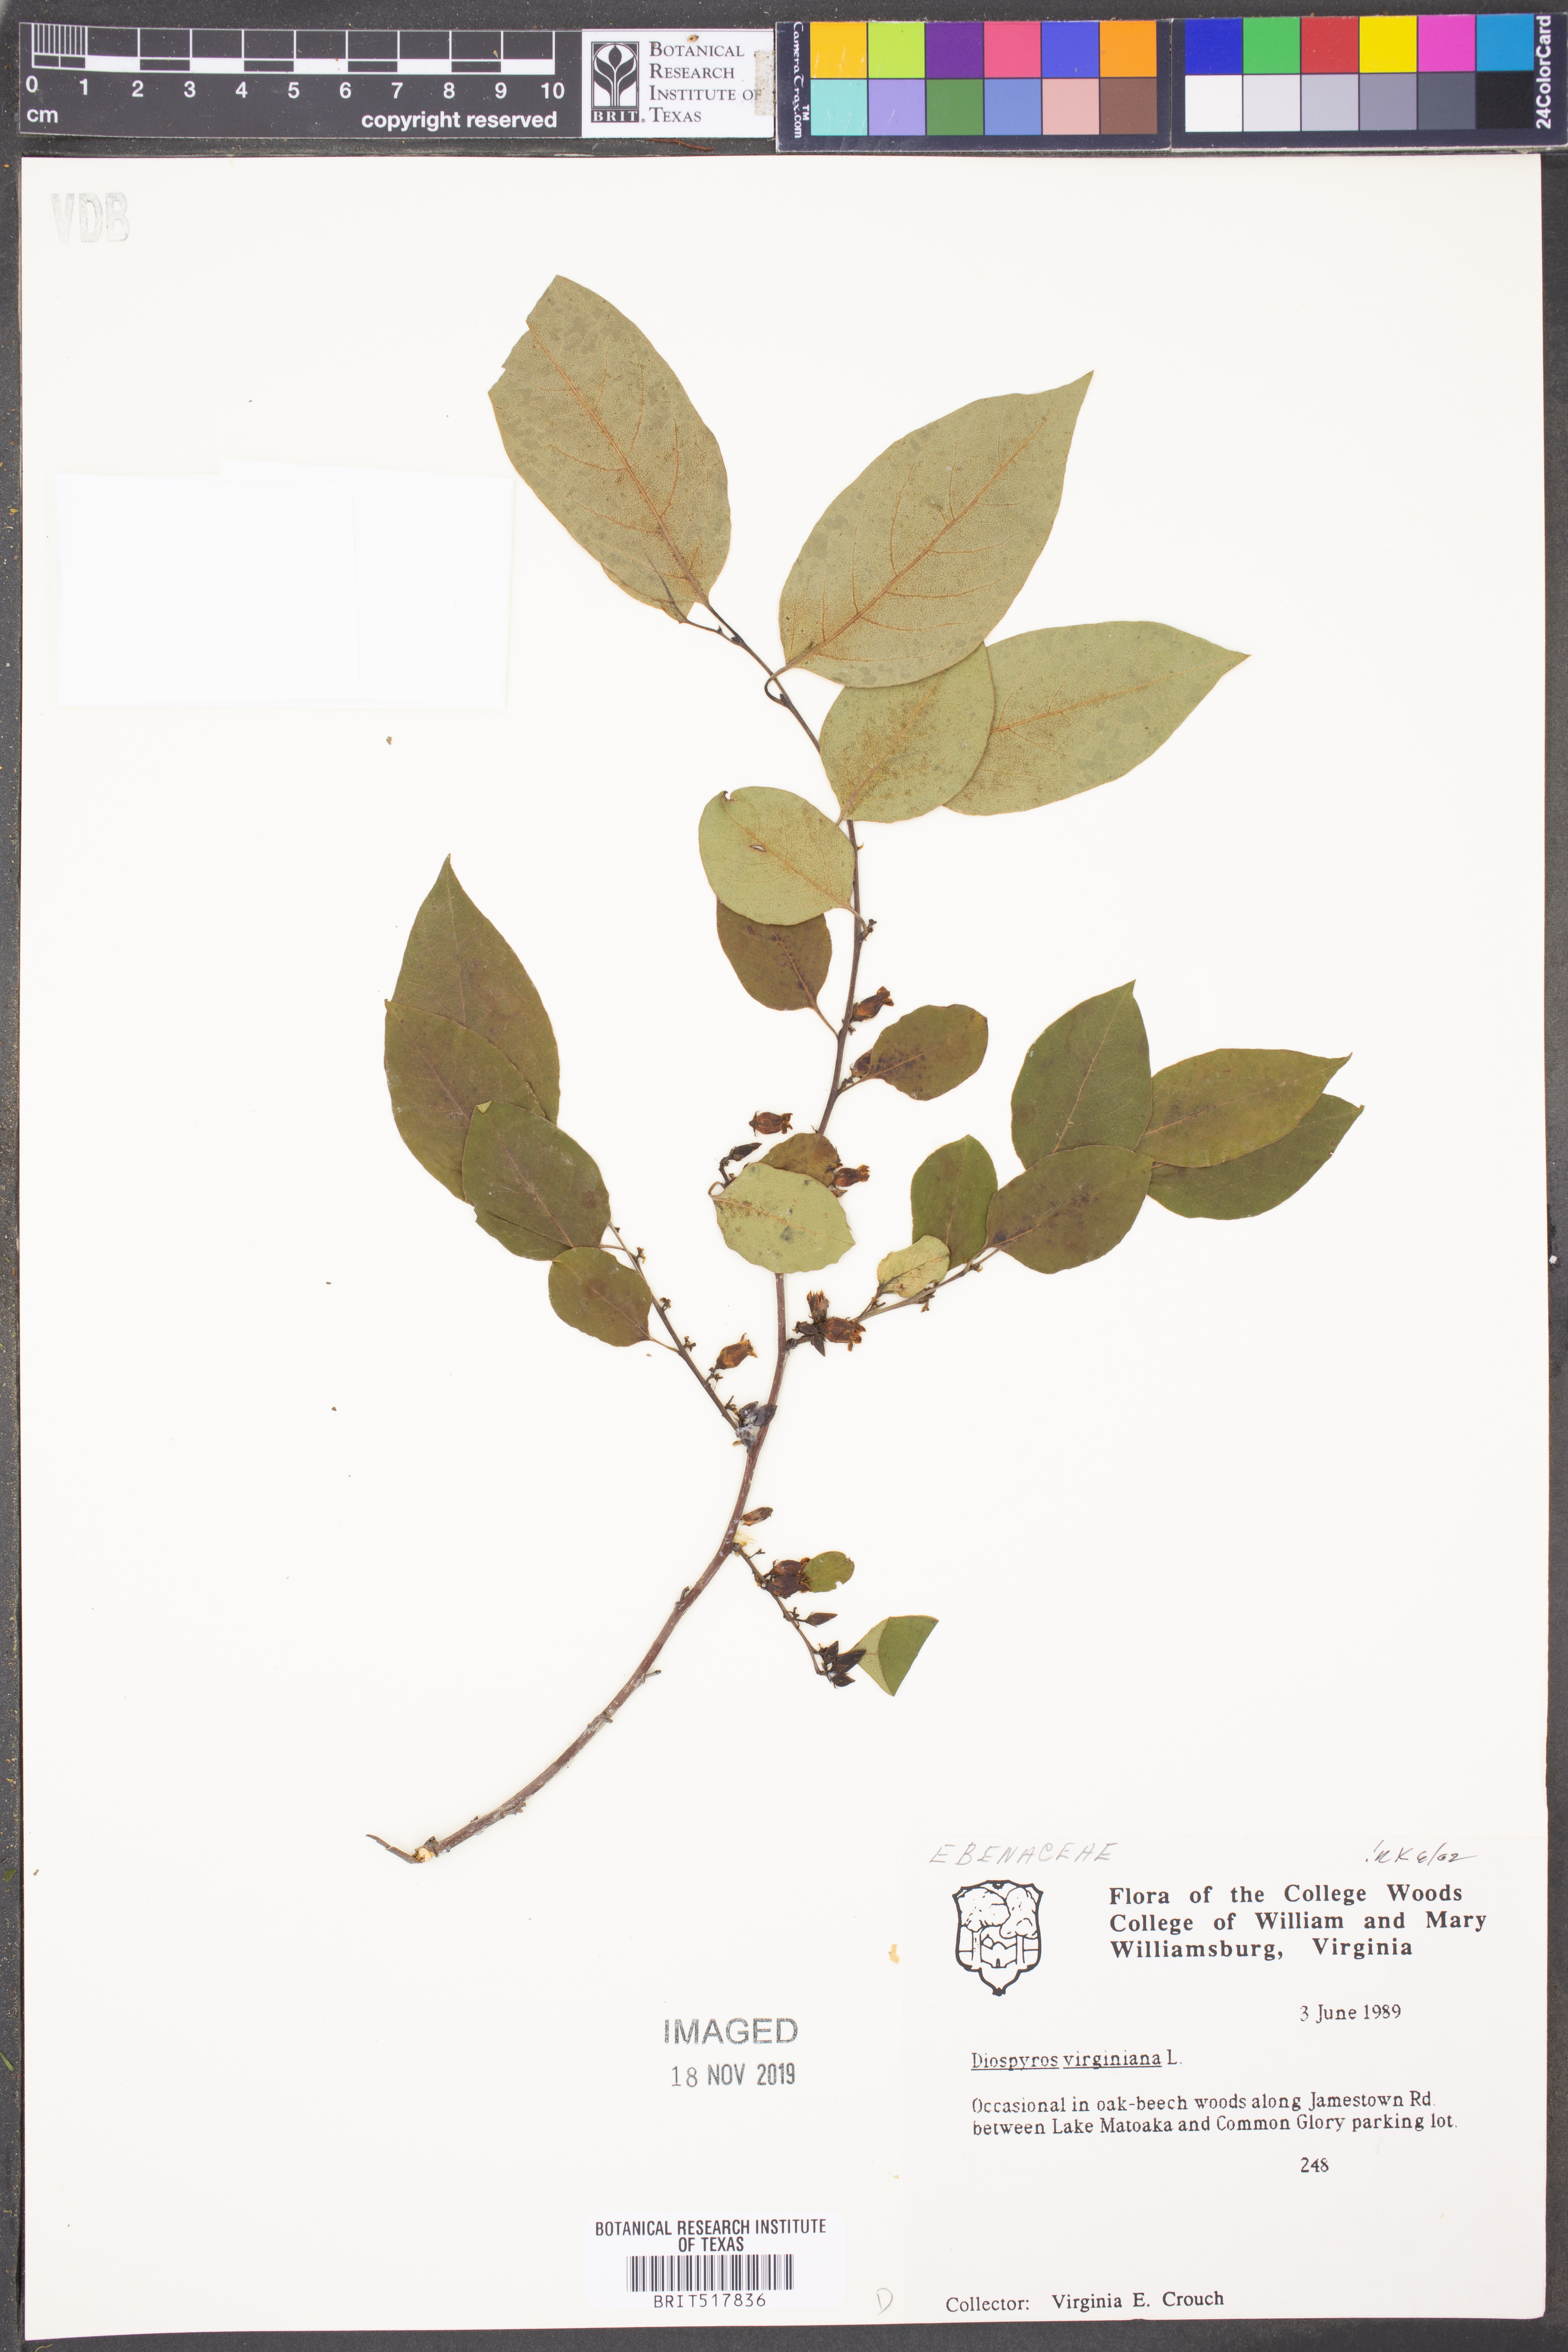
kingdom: Plantae
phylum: Tracheophyta
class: Magnoliopsida
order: Ericales
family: Ebenaceae
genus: Diospyros
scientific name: Diospyros virginiana
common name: Persimmon
